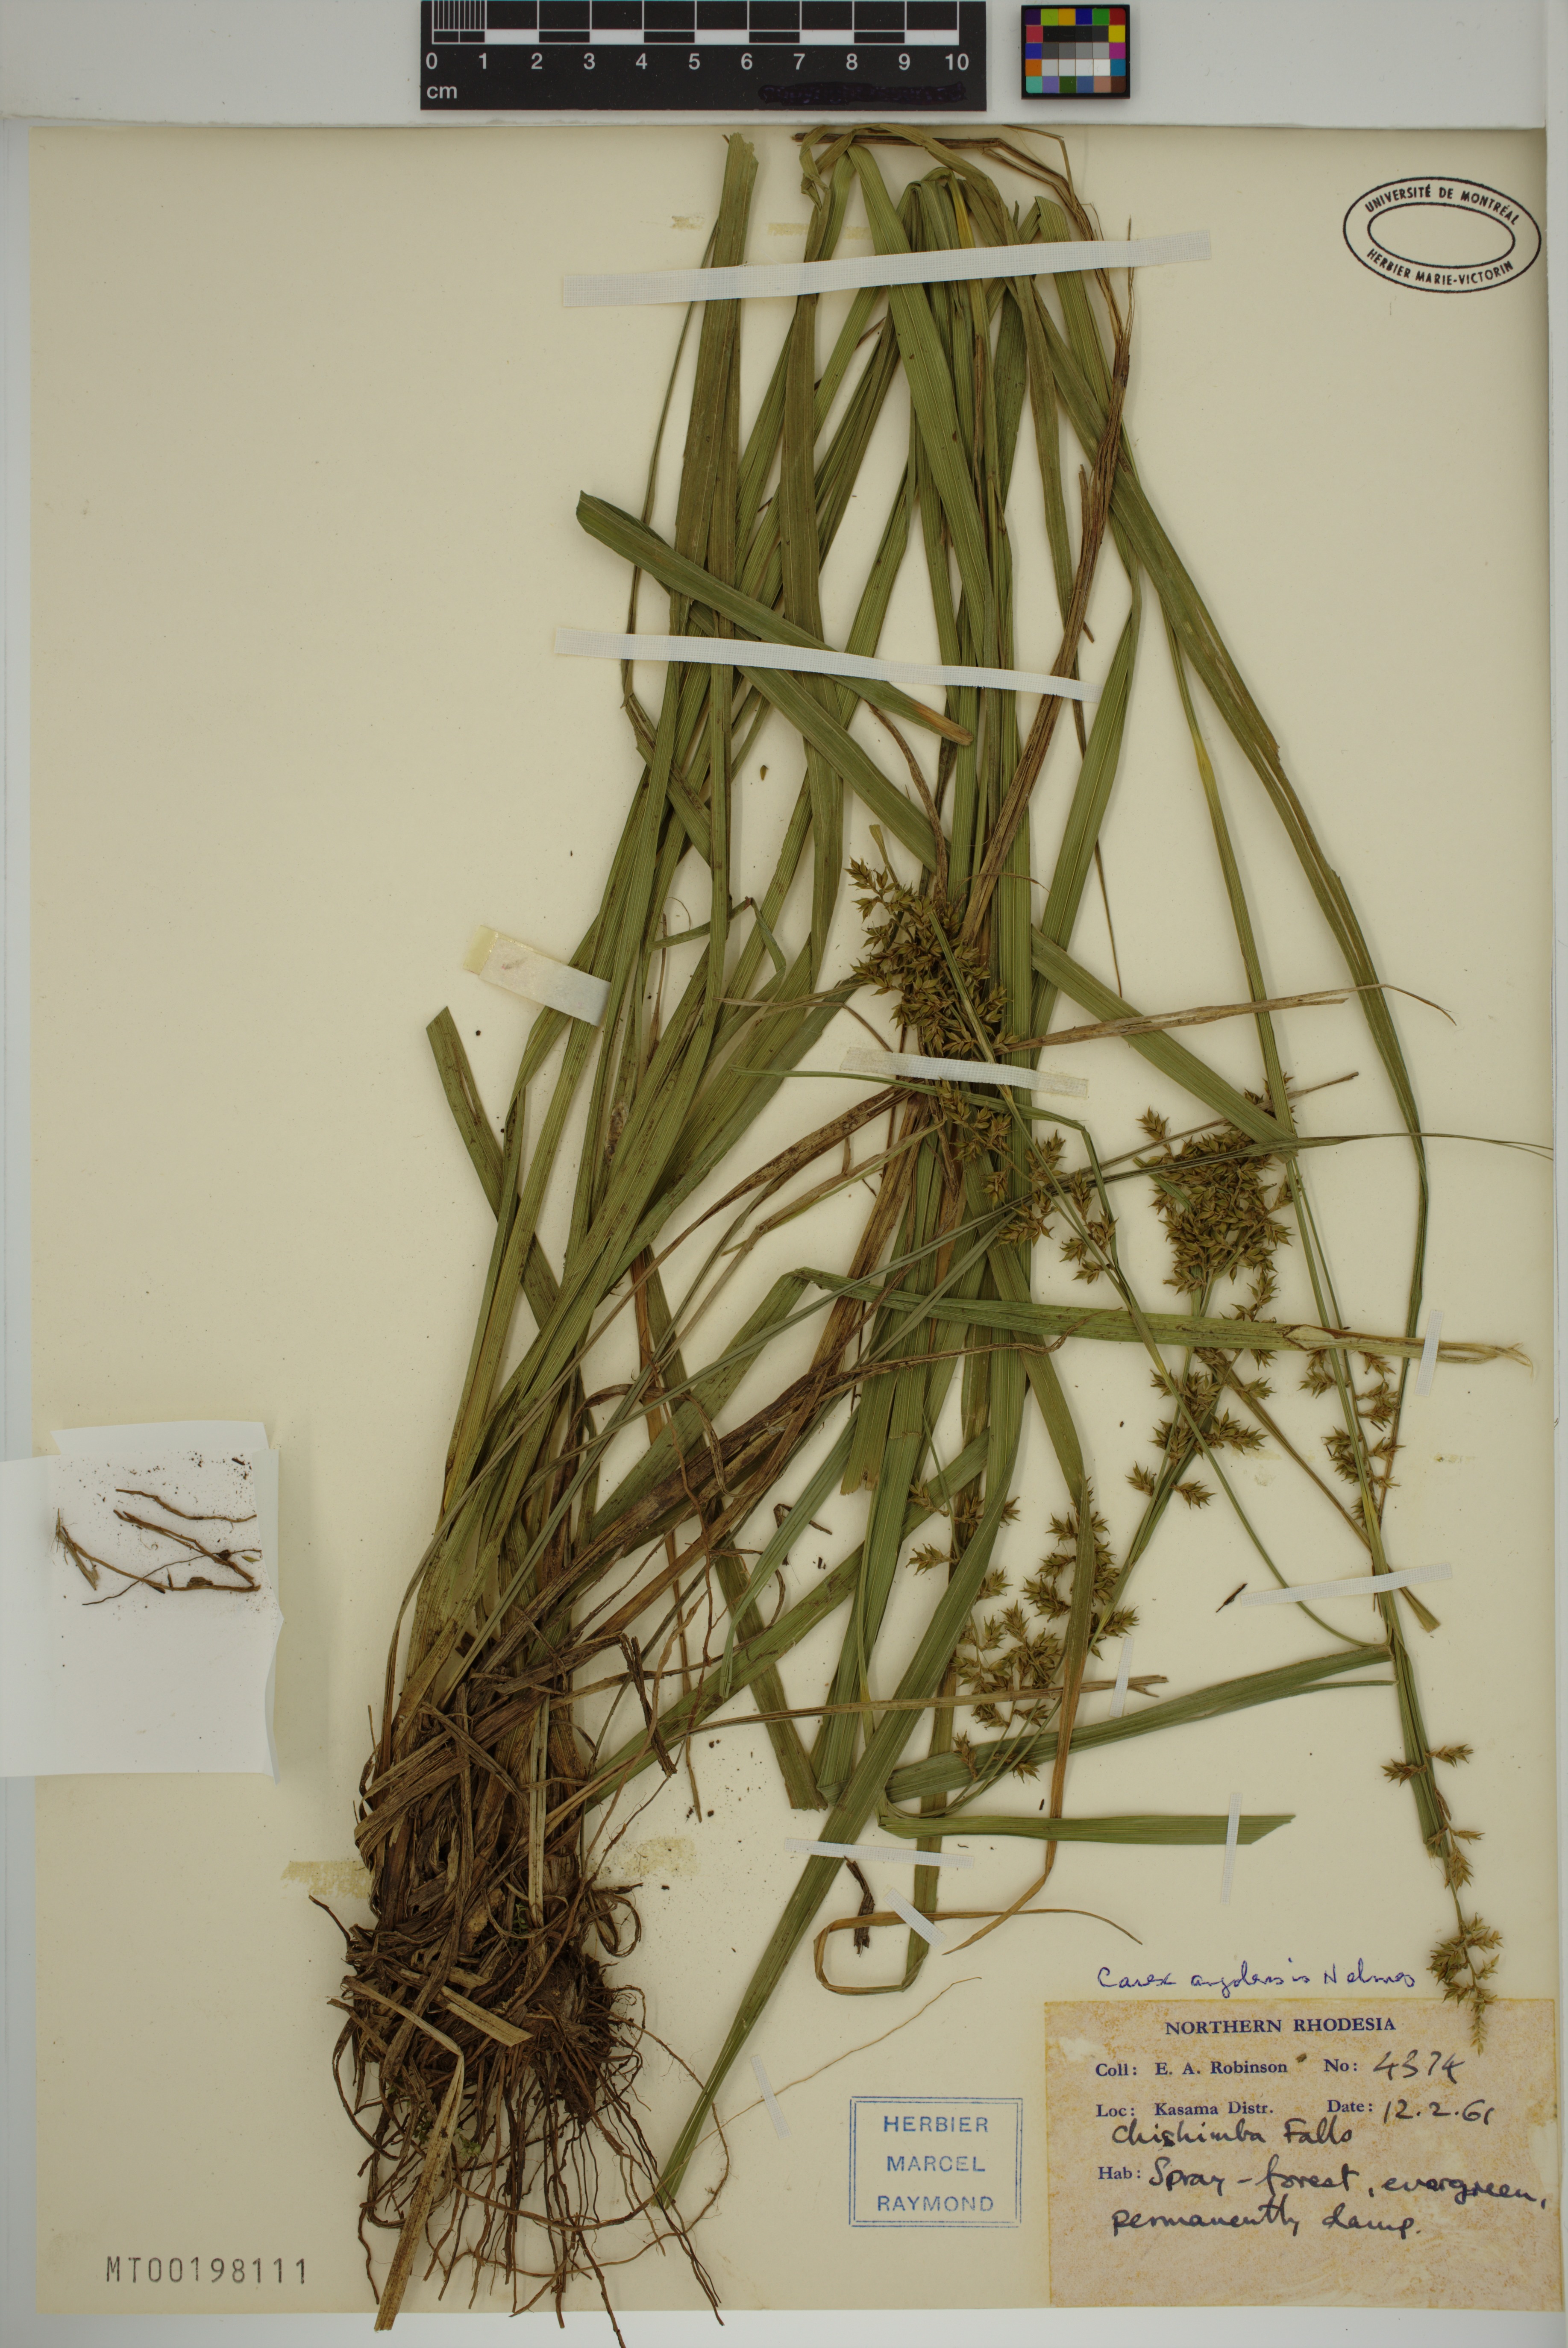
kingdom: Plantae
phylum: Tracheophyta
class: Liliopsida
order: Poales
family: Cyperaceae
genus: Carex
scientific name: Carex angolensis
